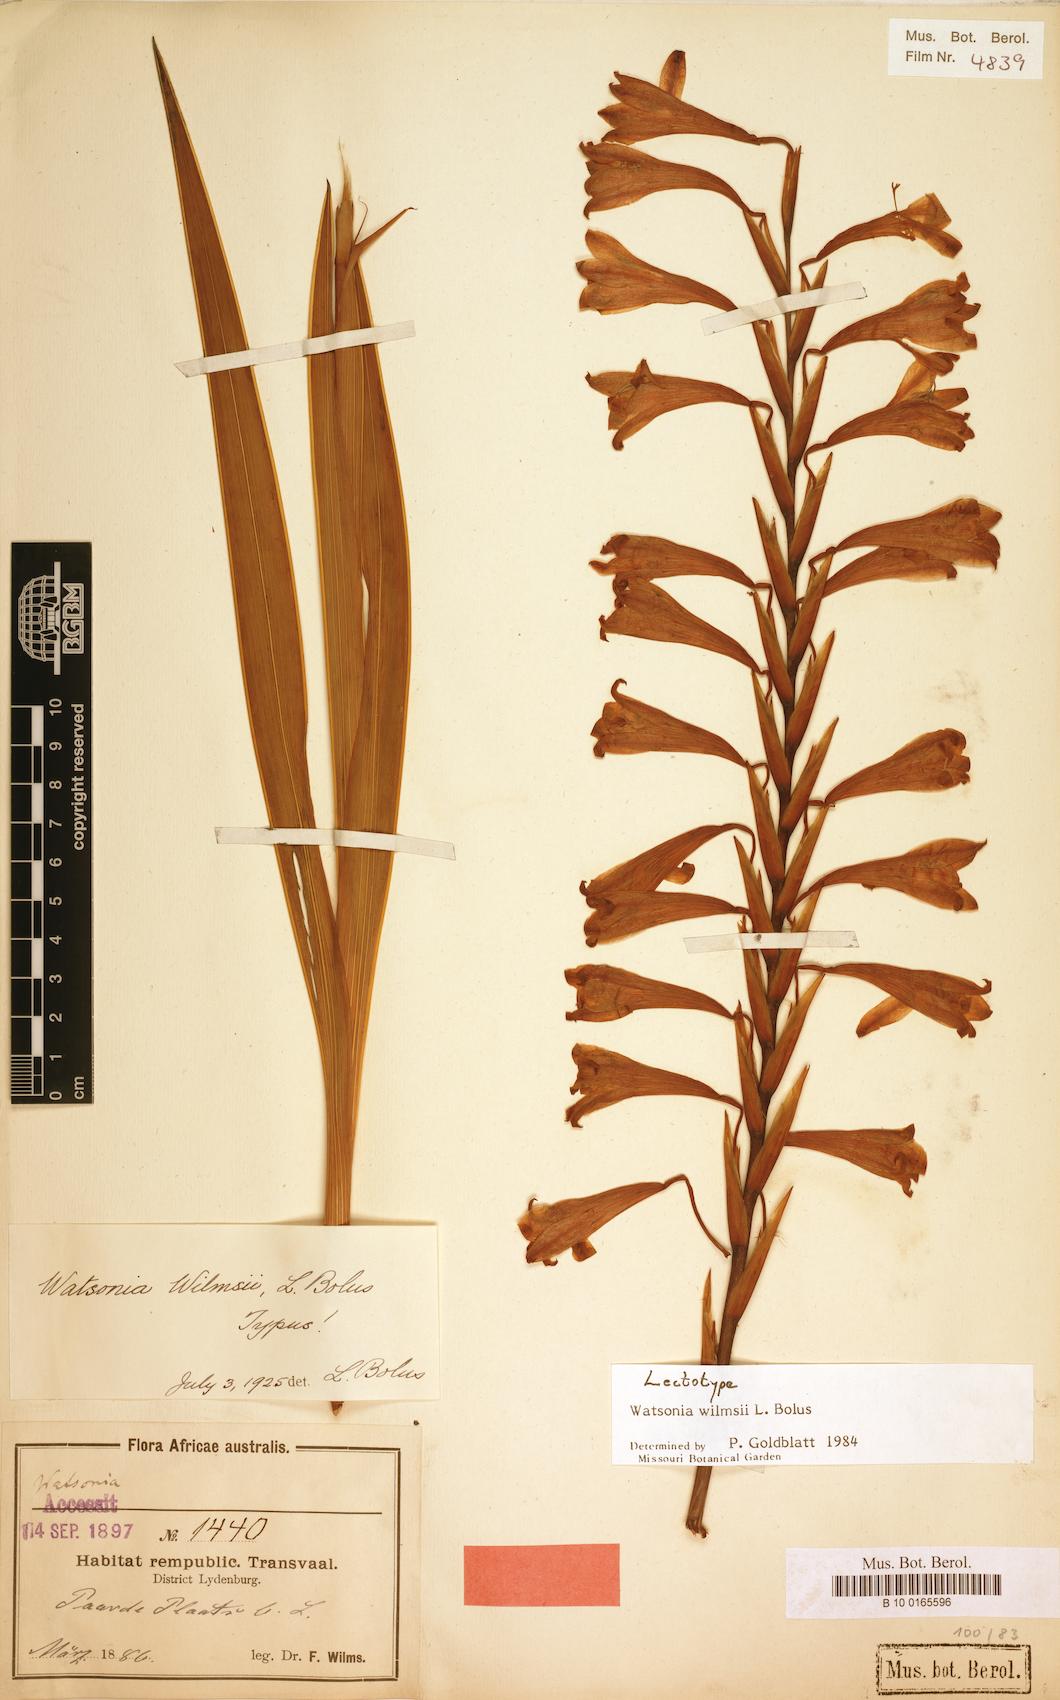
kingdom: Plantae
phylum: Tracheophyta
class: Liliopsida
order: Asparagales
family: Iridaceae
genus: Watsonia
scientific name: Watsonia wilmsii
